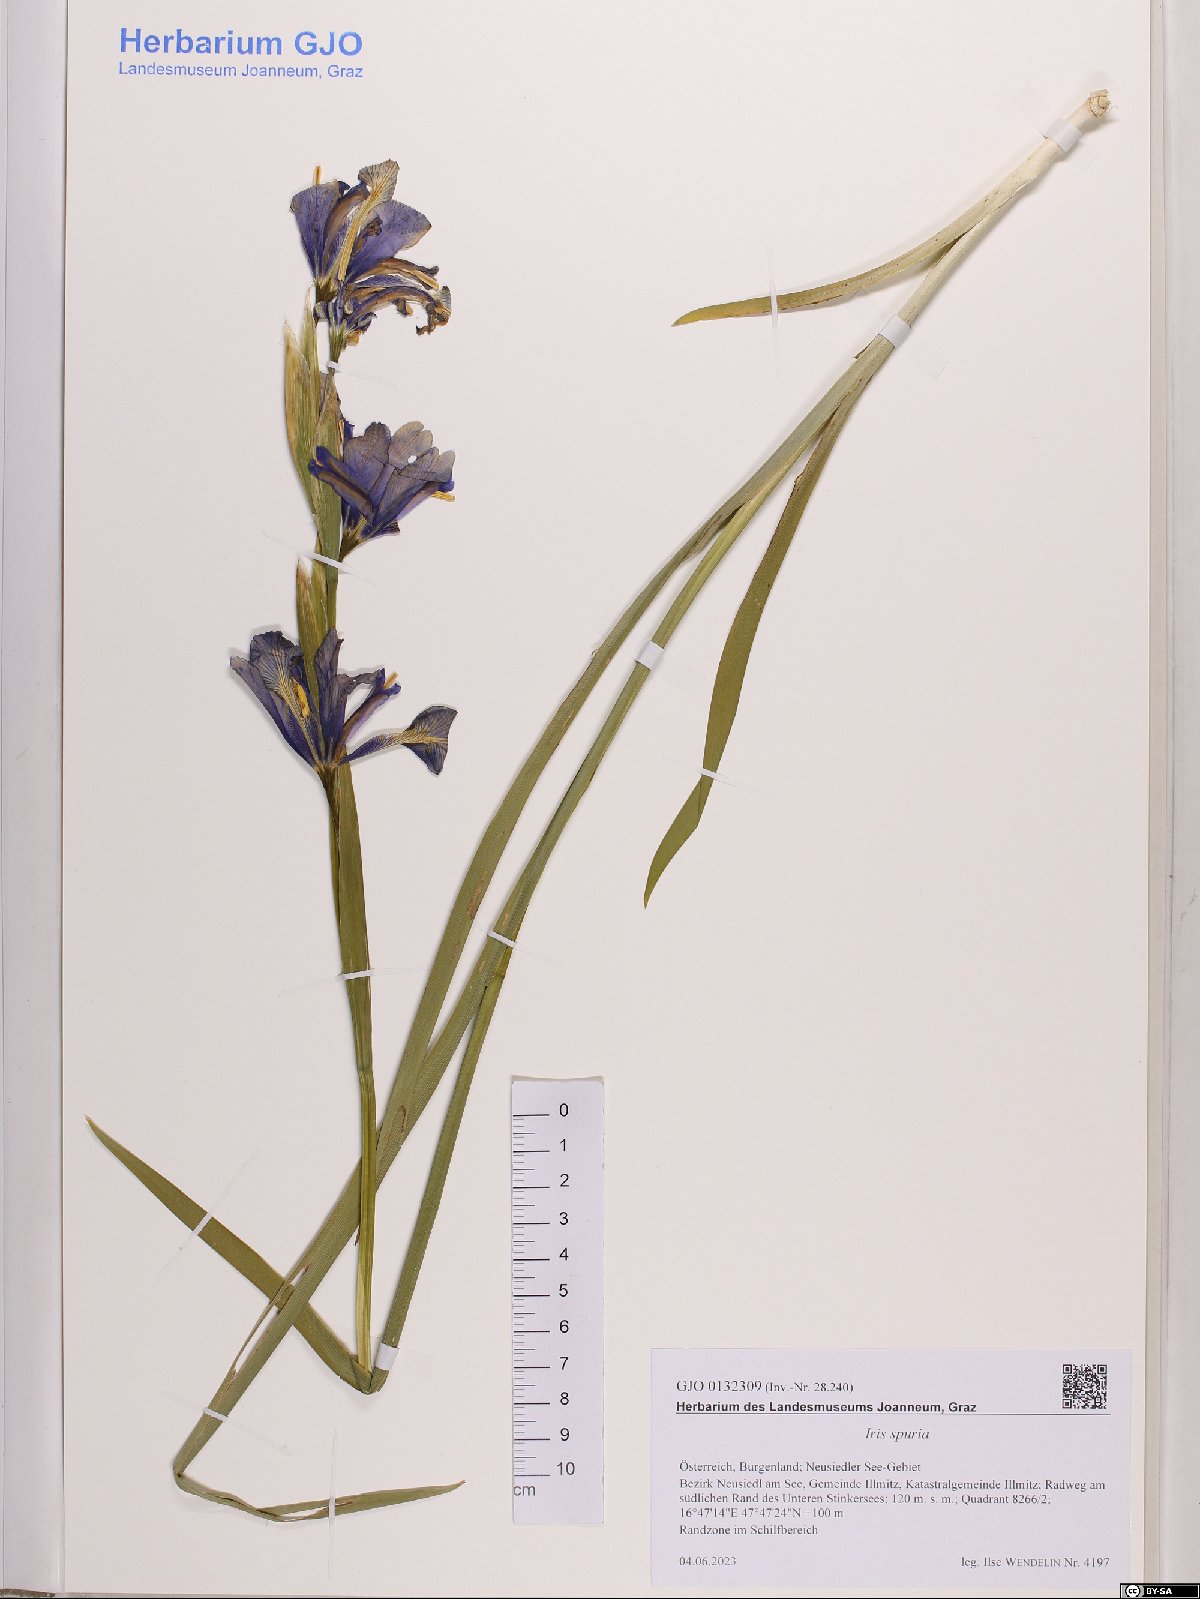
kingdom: Plantae
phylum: Tracheophyta
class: Liliopsida
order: Asparagales
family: Iridaceae
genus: Iris
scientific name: Iris spuria
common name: Blue iris
